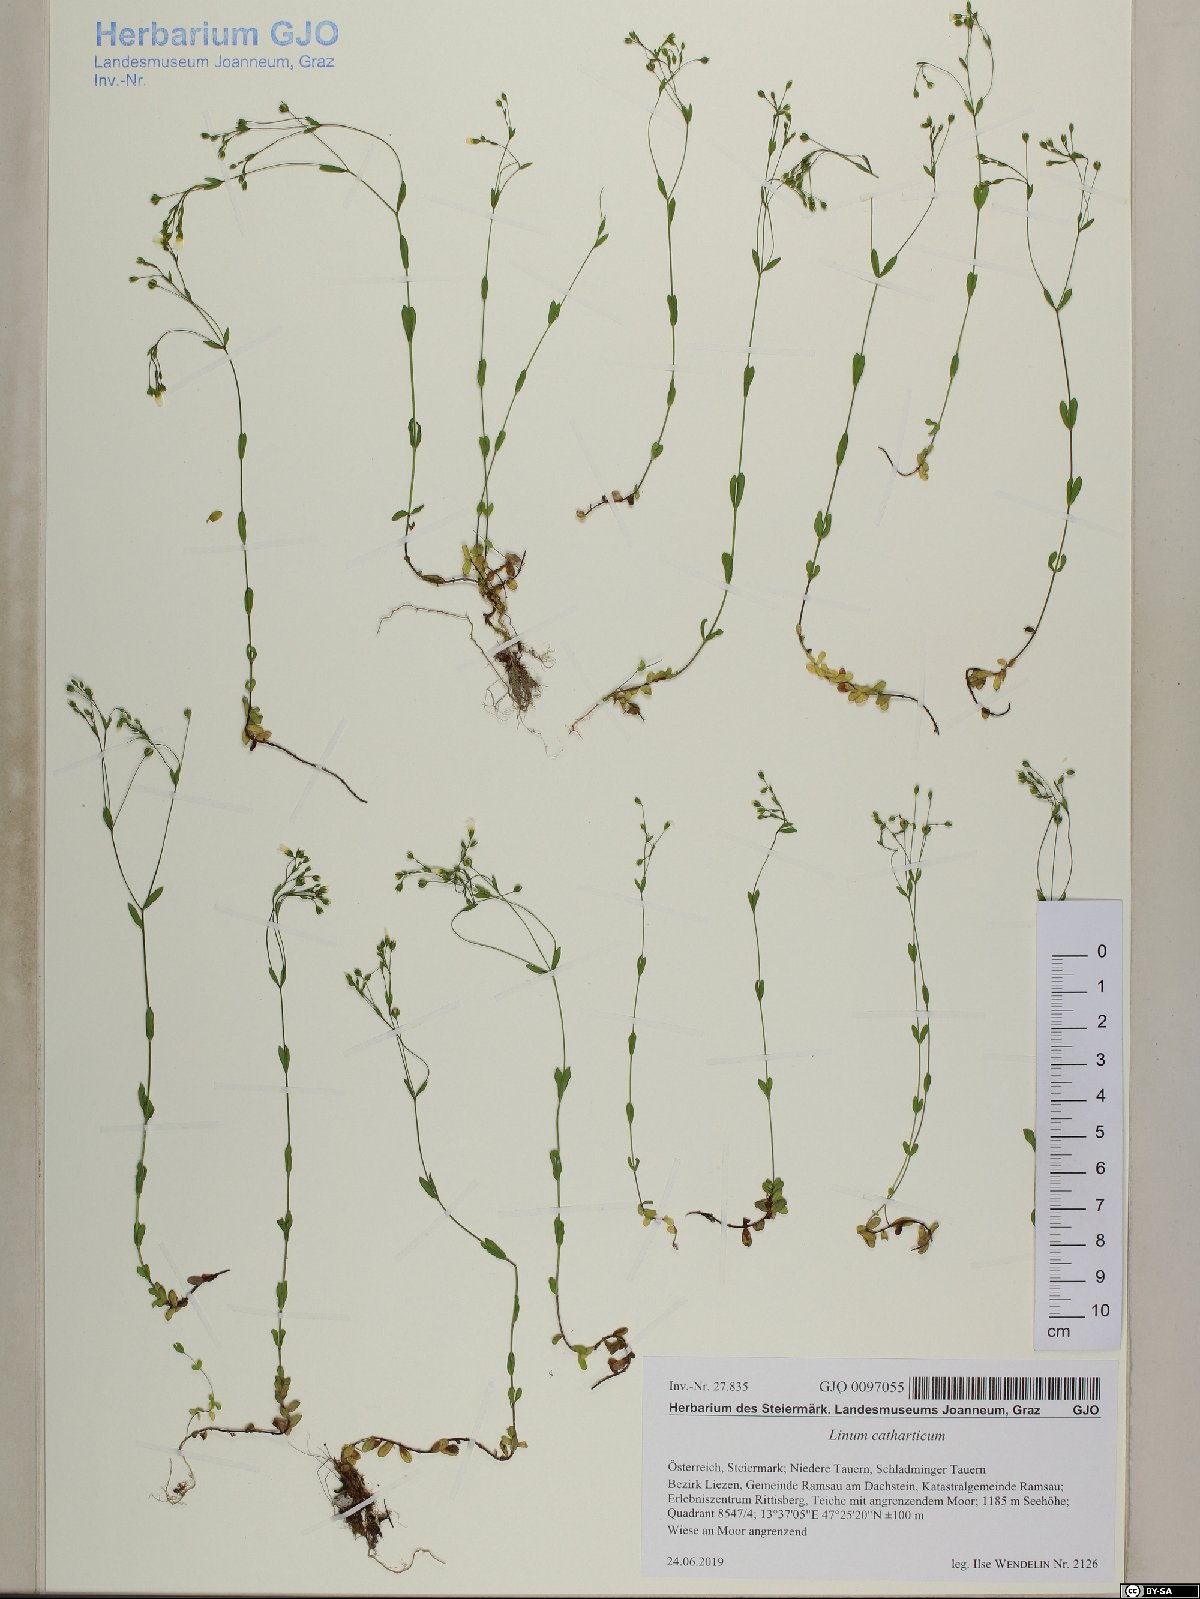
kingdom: Plantae
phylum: Tracheophyta
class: Magnoliopsida
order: Malpighiales
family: Linaceae
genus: Linum
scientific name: Linum catharticum
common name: Fairy flax
